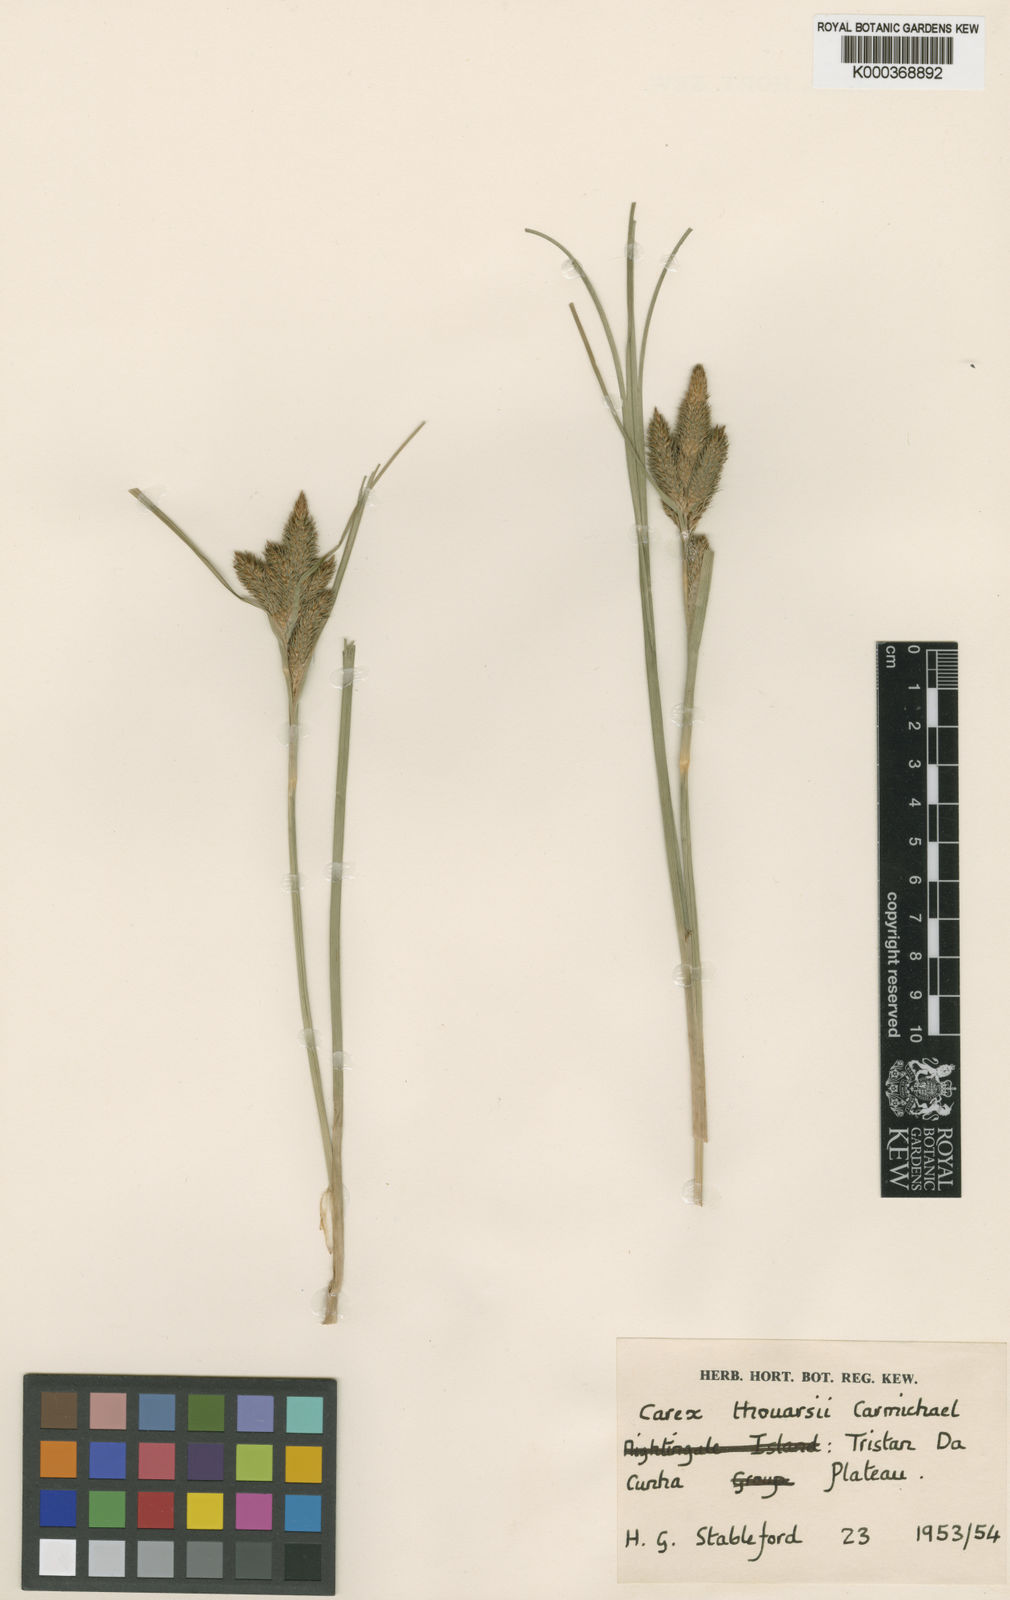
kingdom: Plantae
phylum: Tracheophyta
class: Liliopsida
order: Poales
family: Cyperaceae
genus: Carex
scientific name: Carex thouarsii
